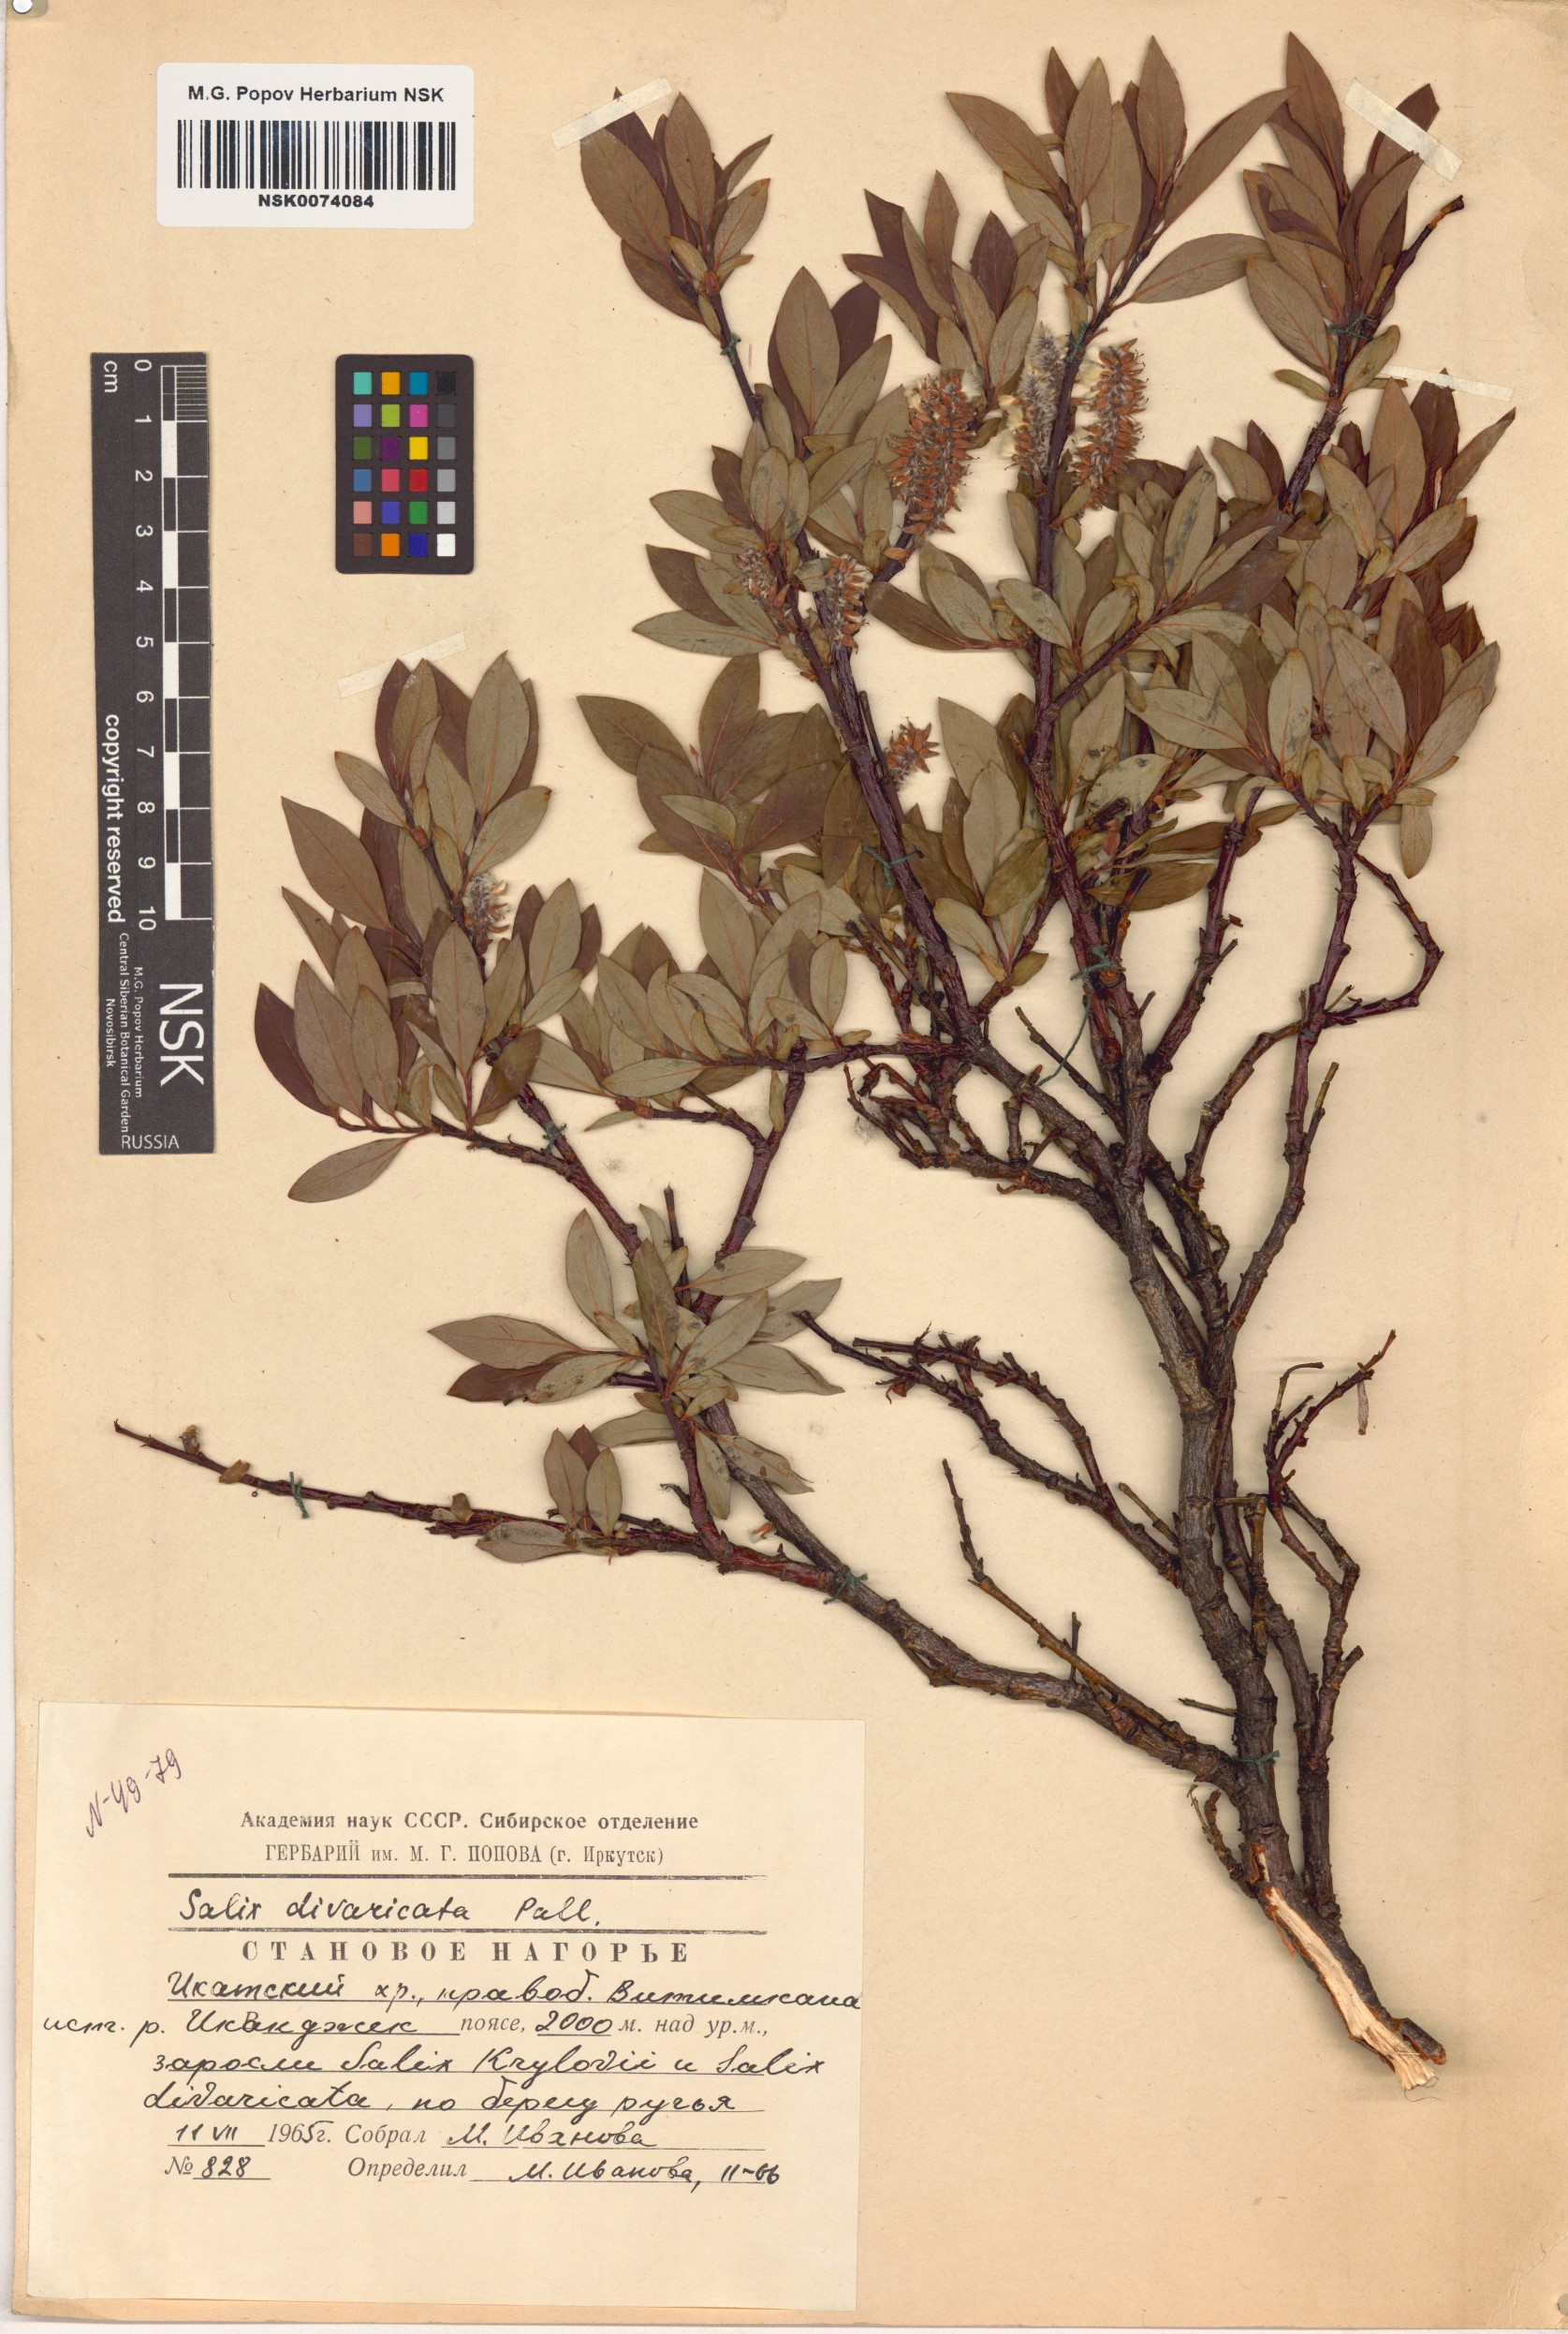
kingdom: Plantae
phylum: Tracheophyta
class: Magnoliopsida
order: Malpighiales
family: Salicaceae
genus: Salix
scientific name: Salix divaricata
